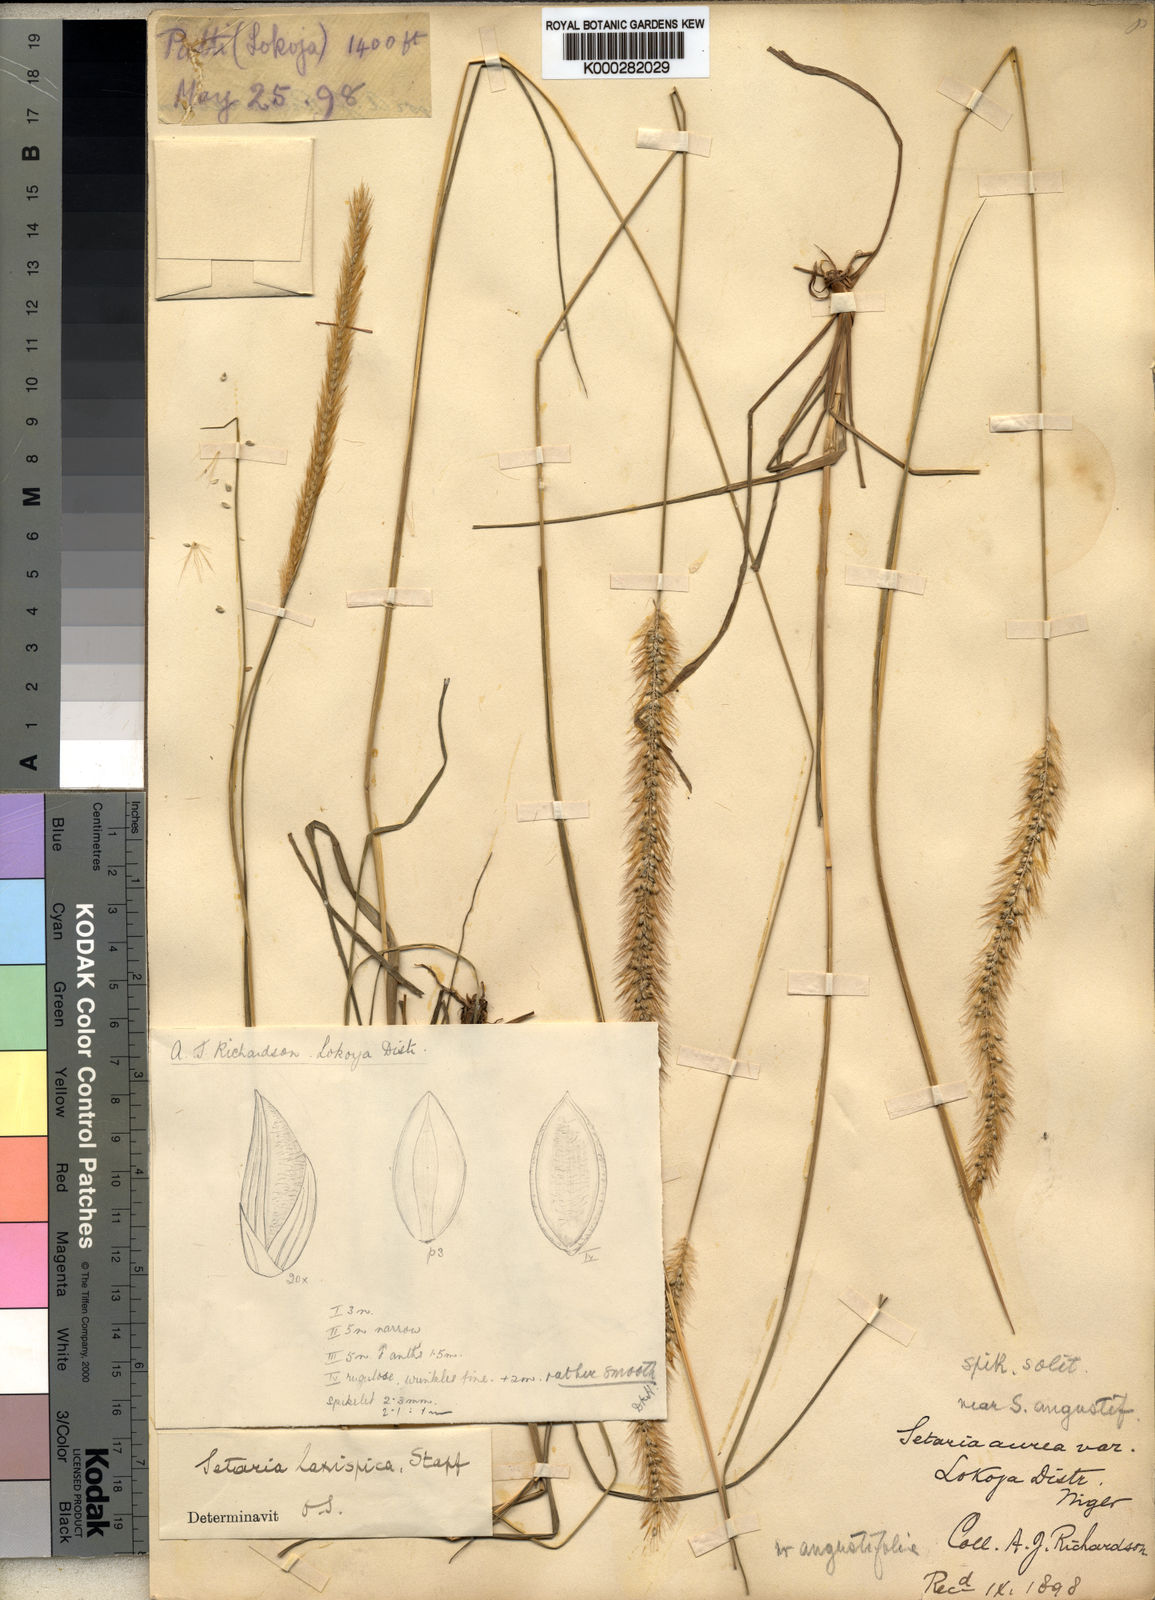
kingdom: Plantae
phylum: Tracheophyta
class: Liliopsida
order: Poales
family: Poaceae
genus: Setaria
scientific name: Setaria sphacelata
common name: African bristlegrass
